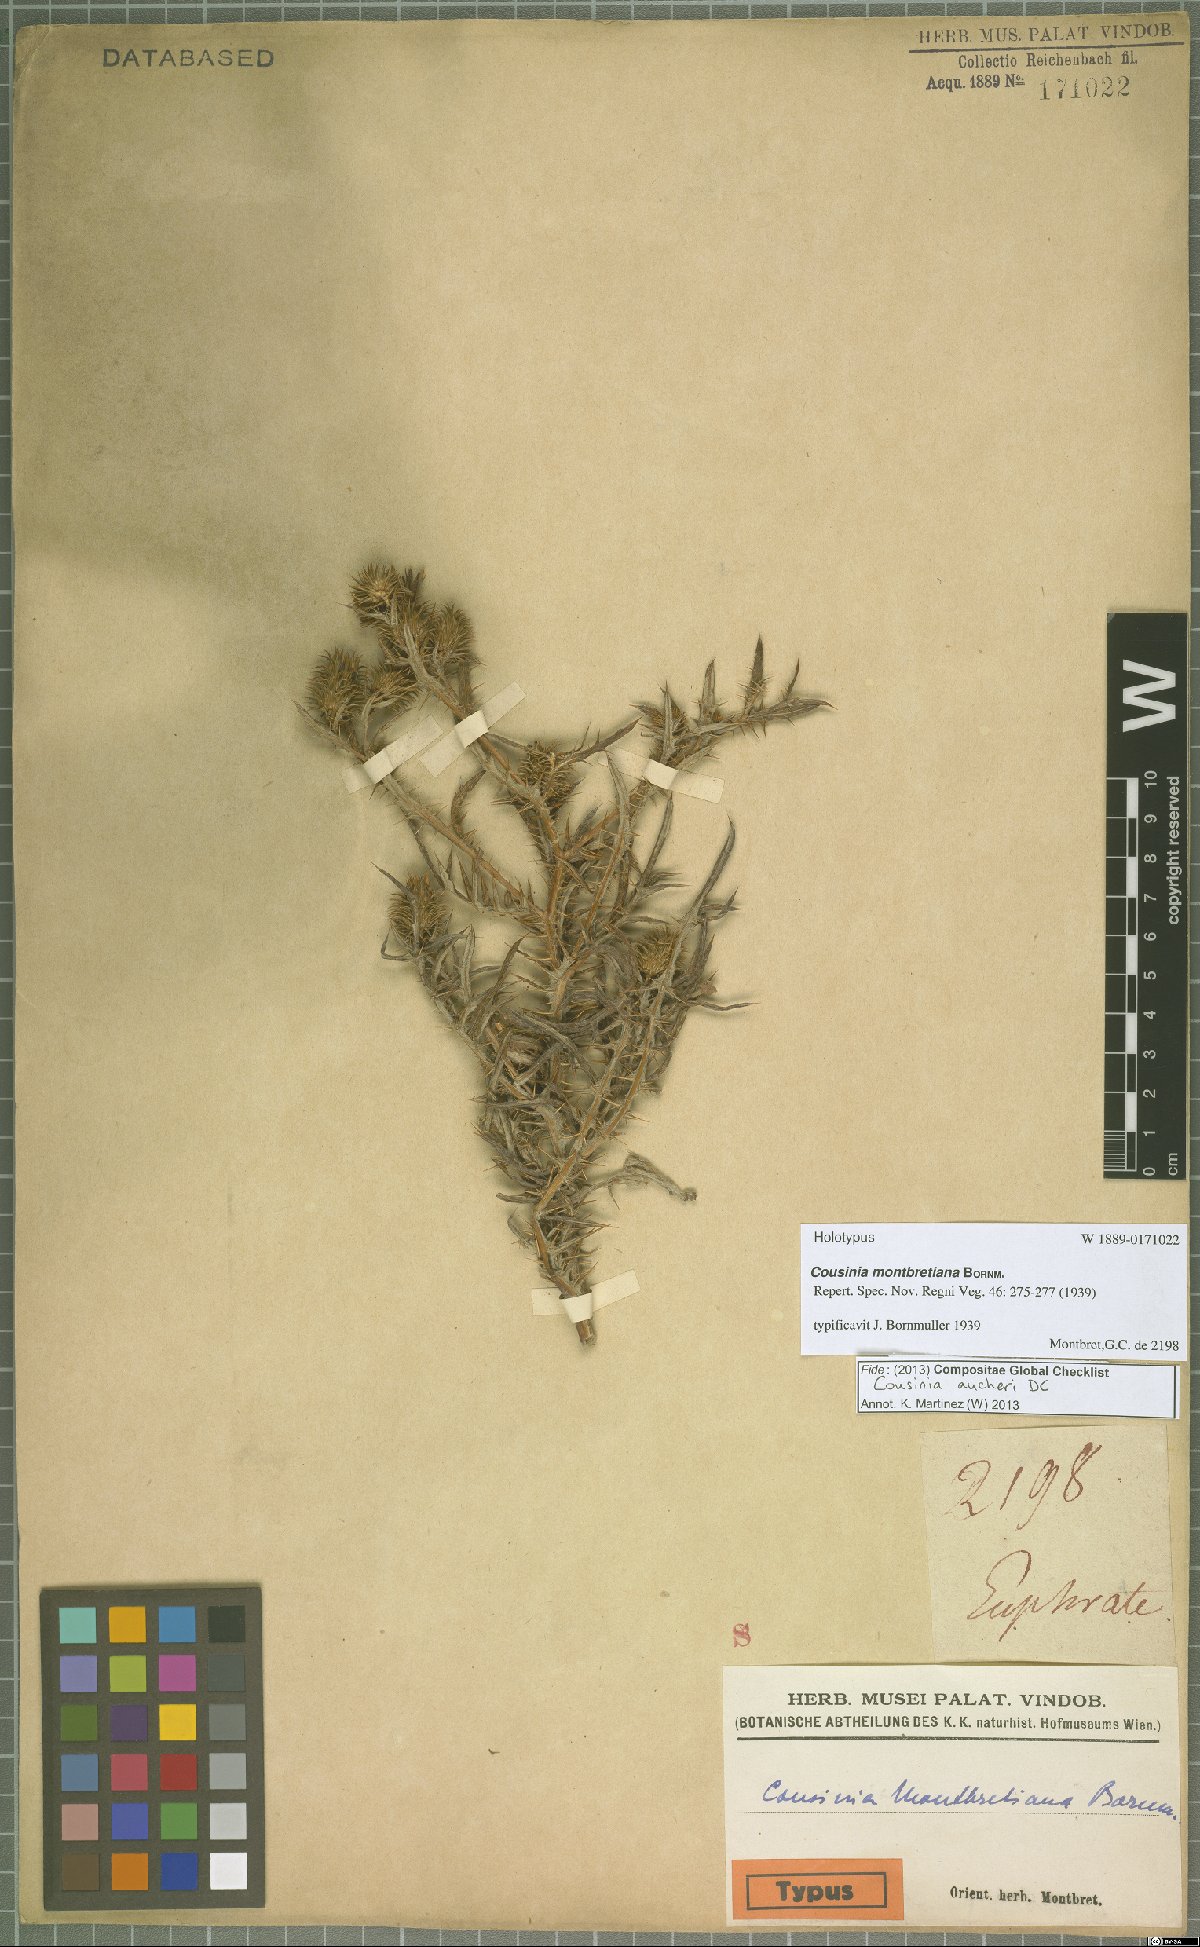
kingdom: Plantae
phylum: Tracheophyta
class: Magnoliopsida
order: Asterales
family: Asteraceae
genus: Cousinia
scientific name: Cousinia aucheri
